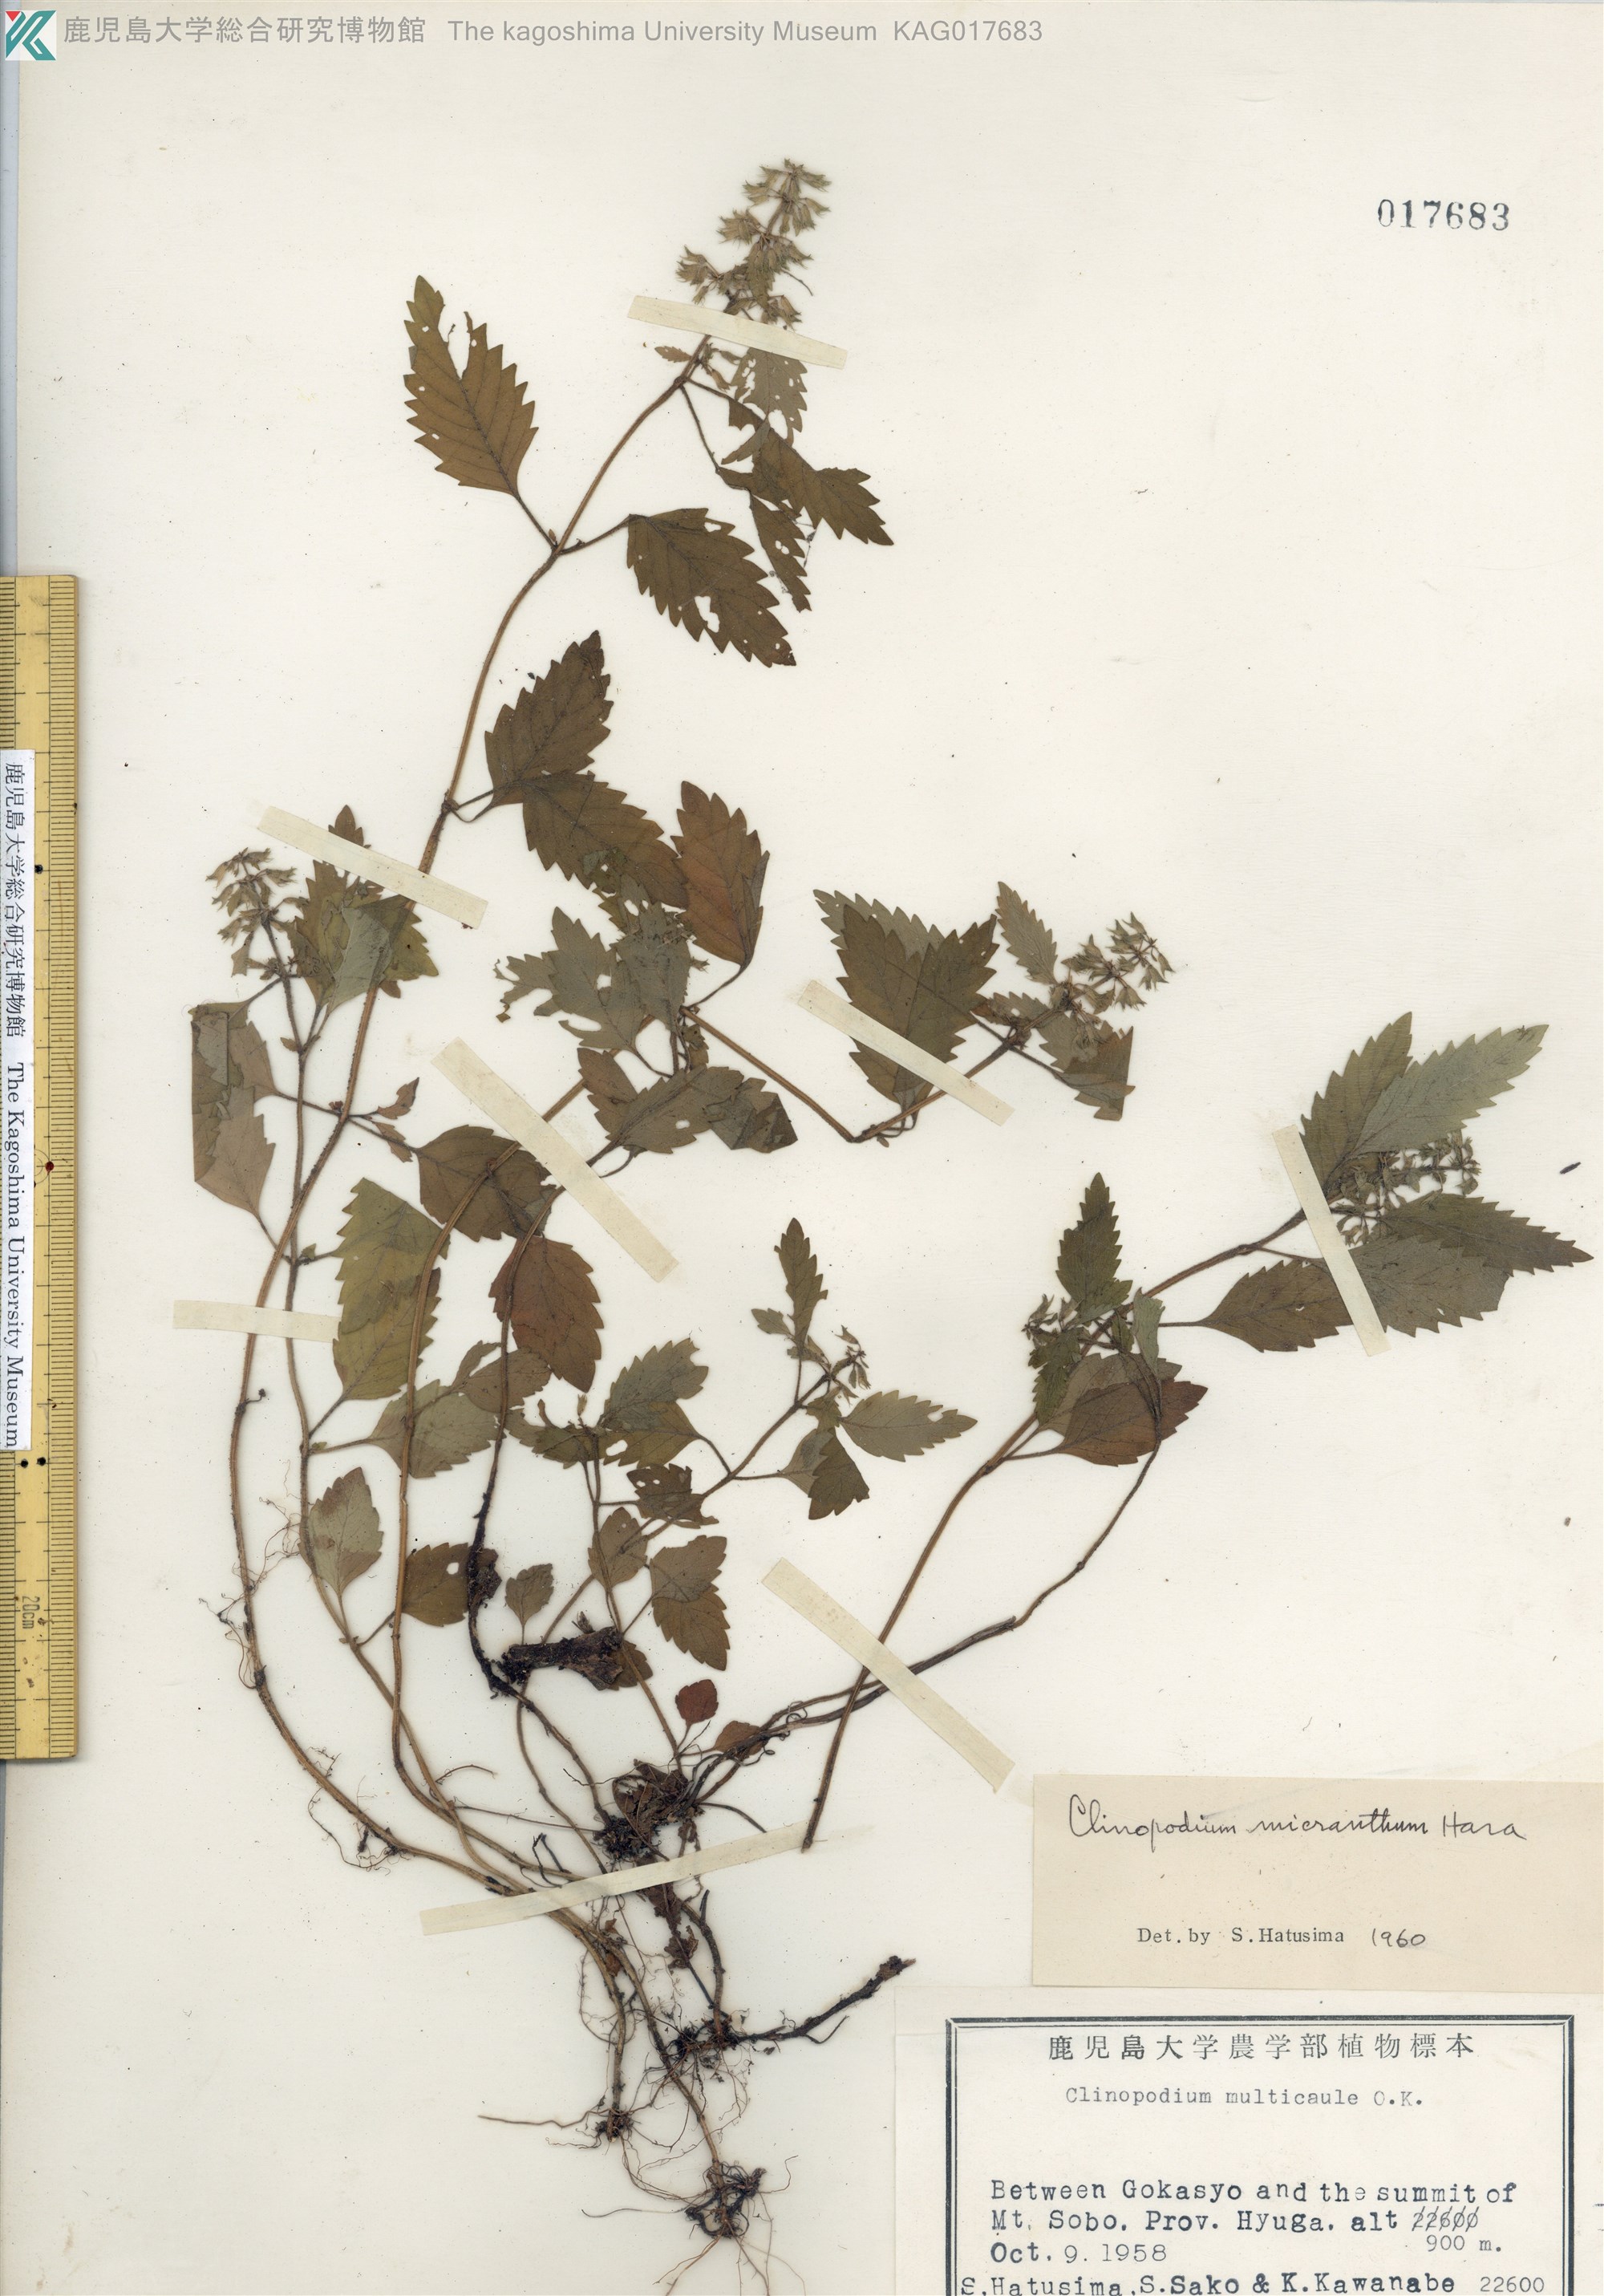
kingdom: Plantae
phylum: Tracheophyta
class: Magnoliopsida
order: Lamiales
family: Lamiaceae
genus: Clinopodium
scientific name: Clinopodium multicaule
